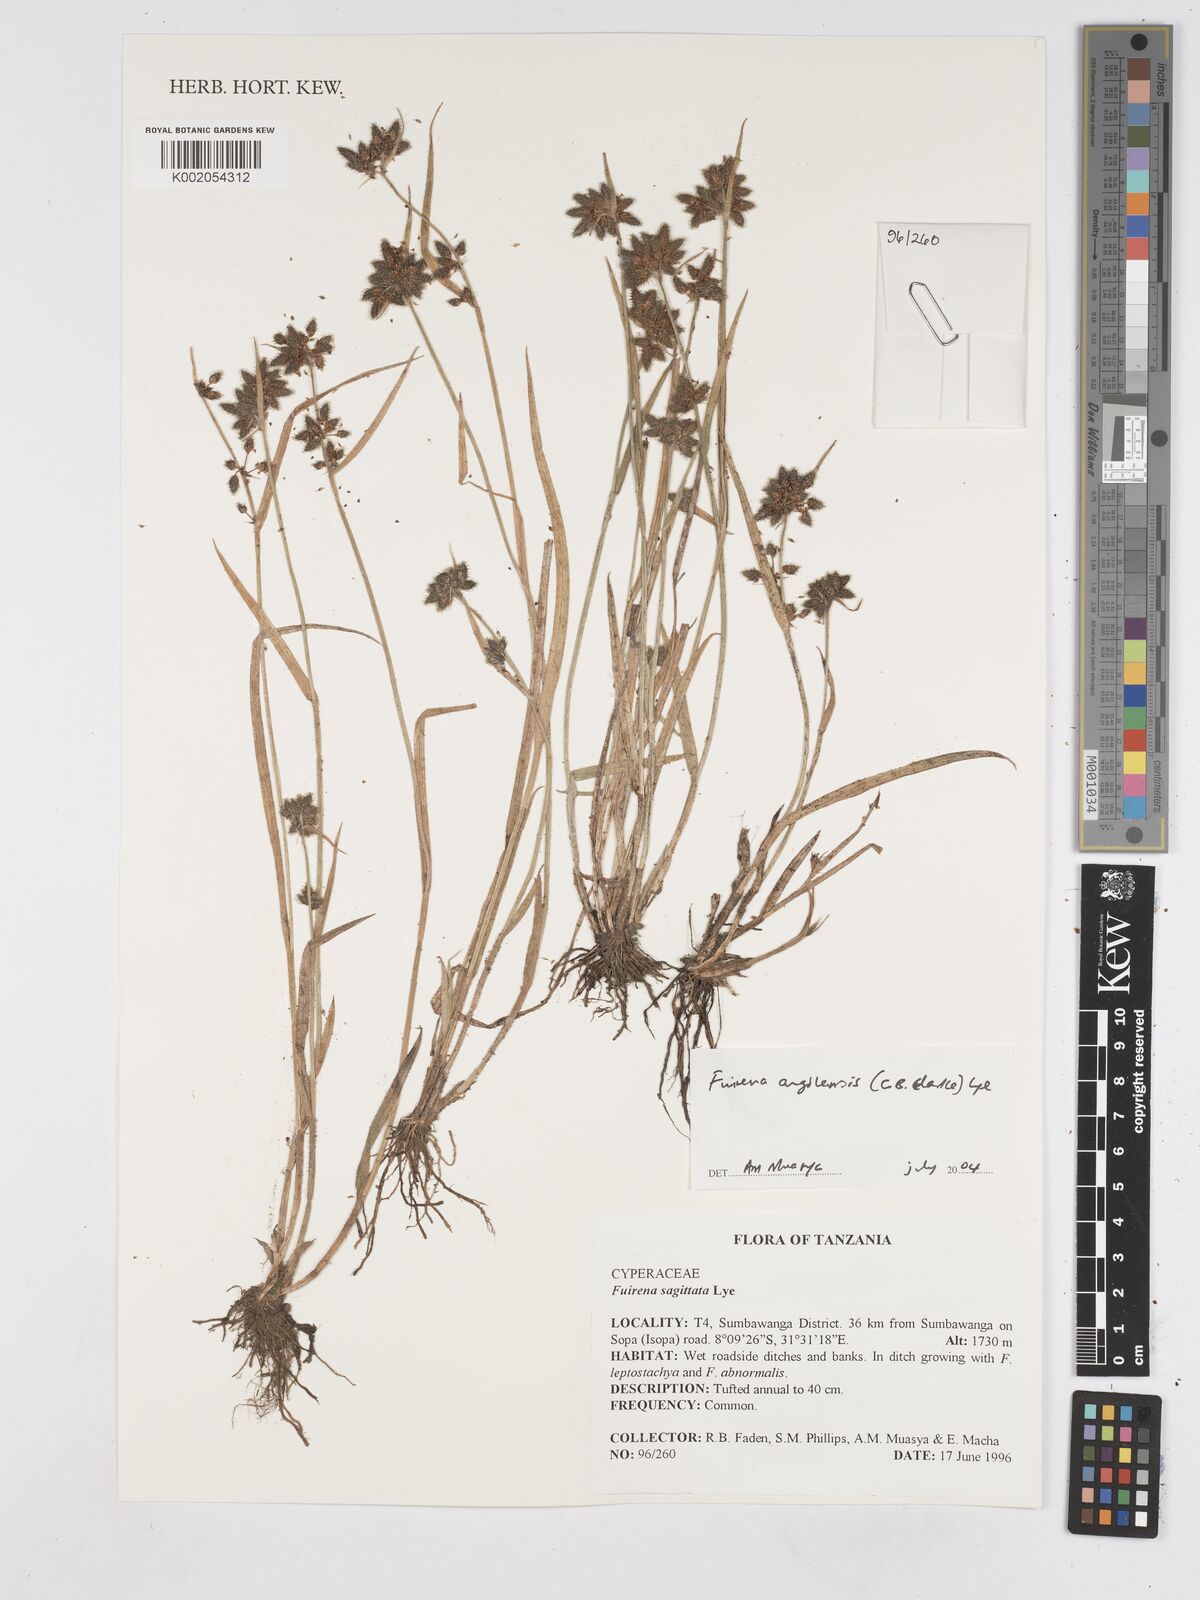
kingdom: Plantae
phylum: Tracheophyta
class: Liliopsida
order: Poales
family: Cyperaceae
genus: Fuirena
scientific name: Fuirena angolensis
